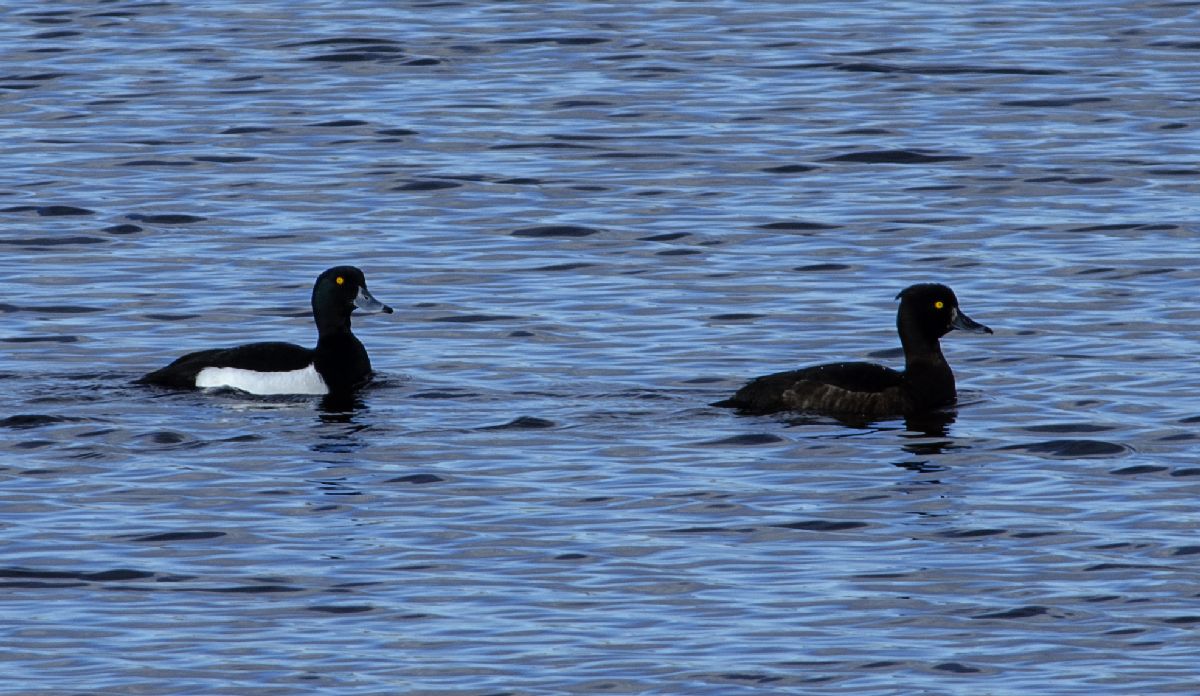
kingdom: Animalia
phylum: Chordata
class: Aves
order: Anseriformes
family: Anatidae
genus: Aythya
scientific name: Aythya fuligula
